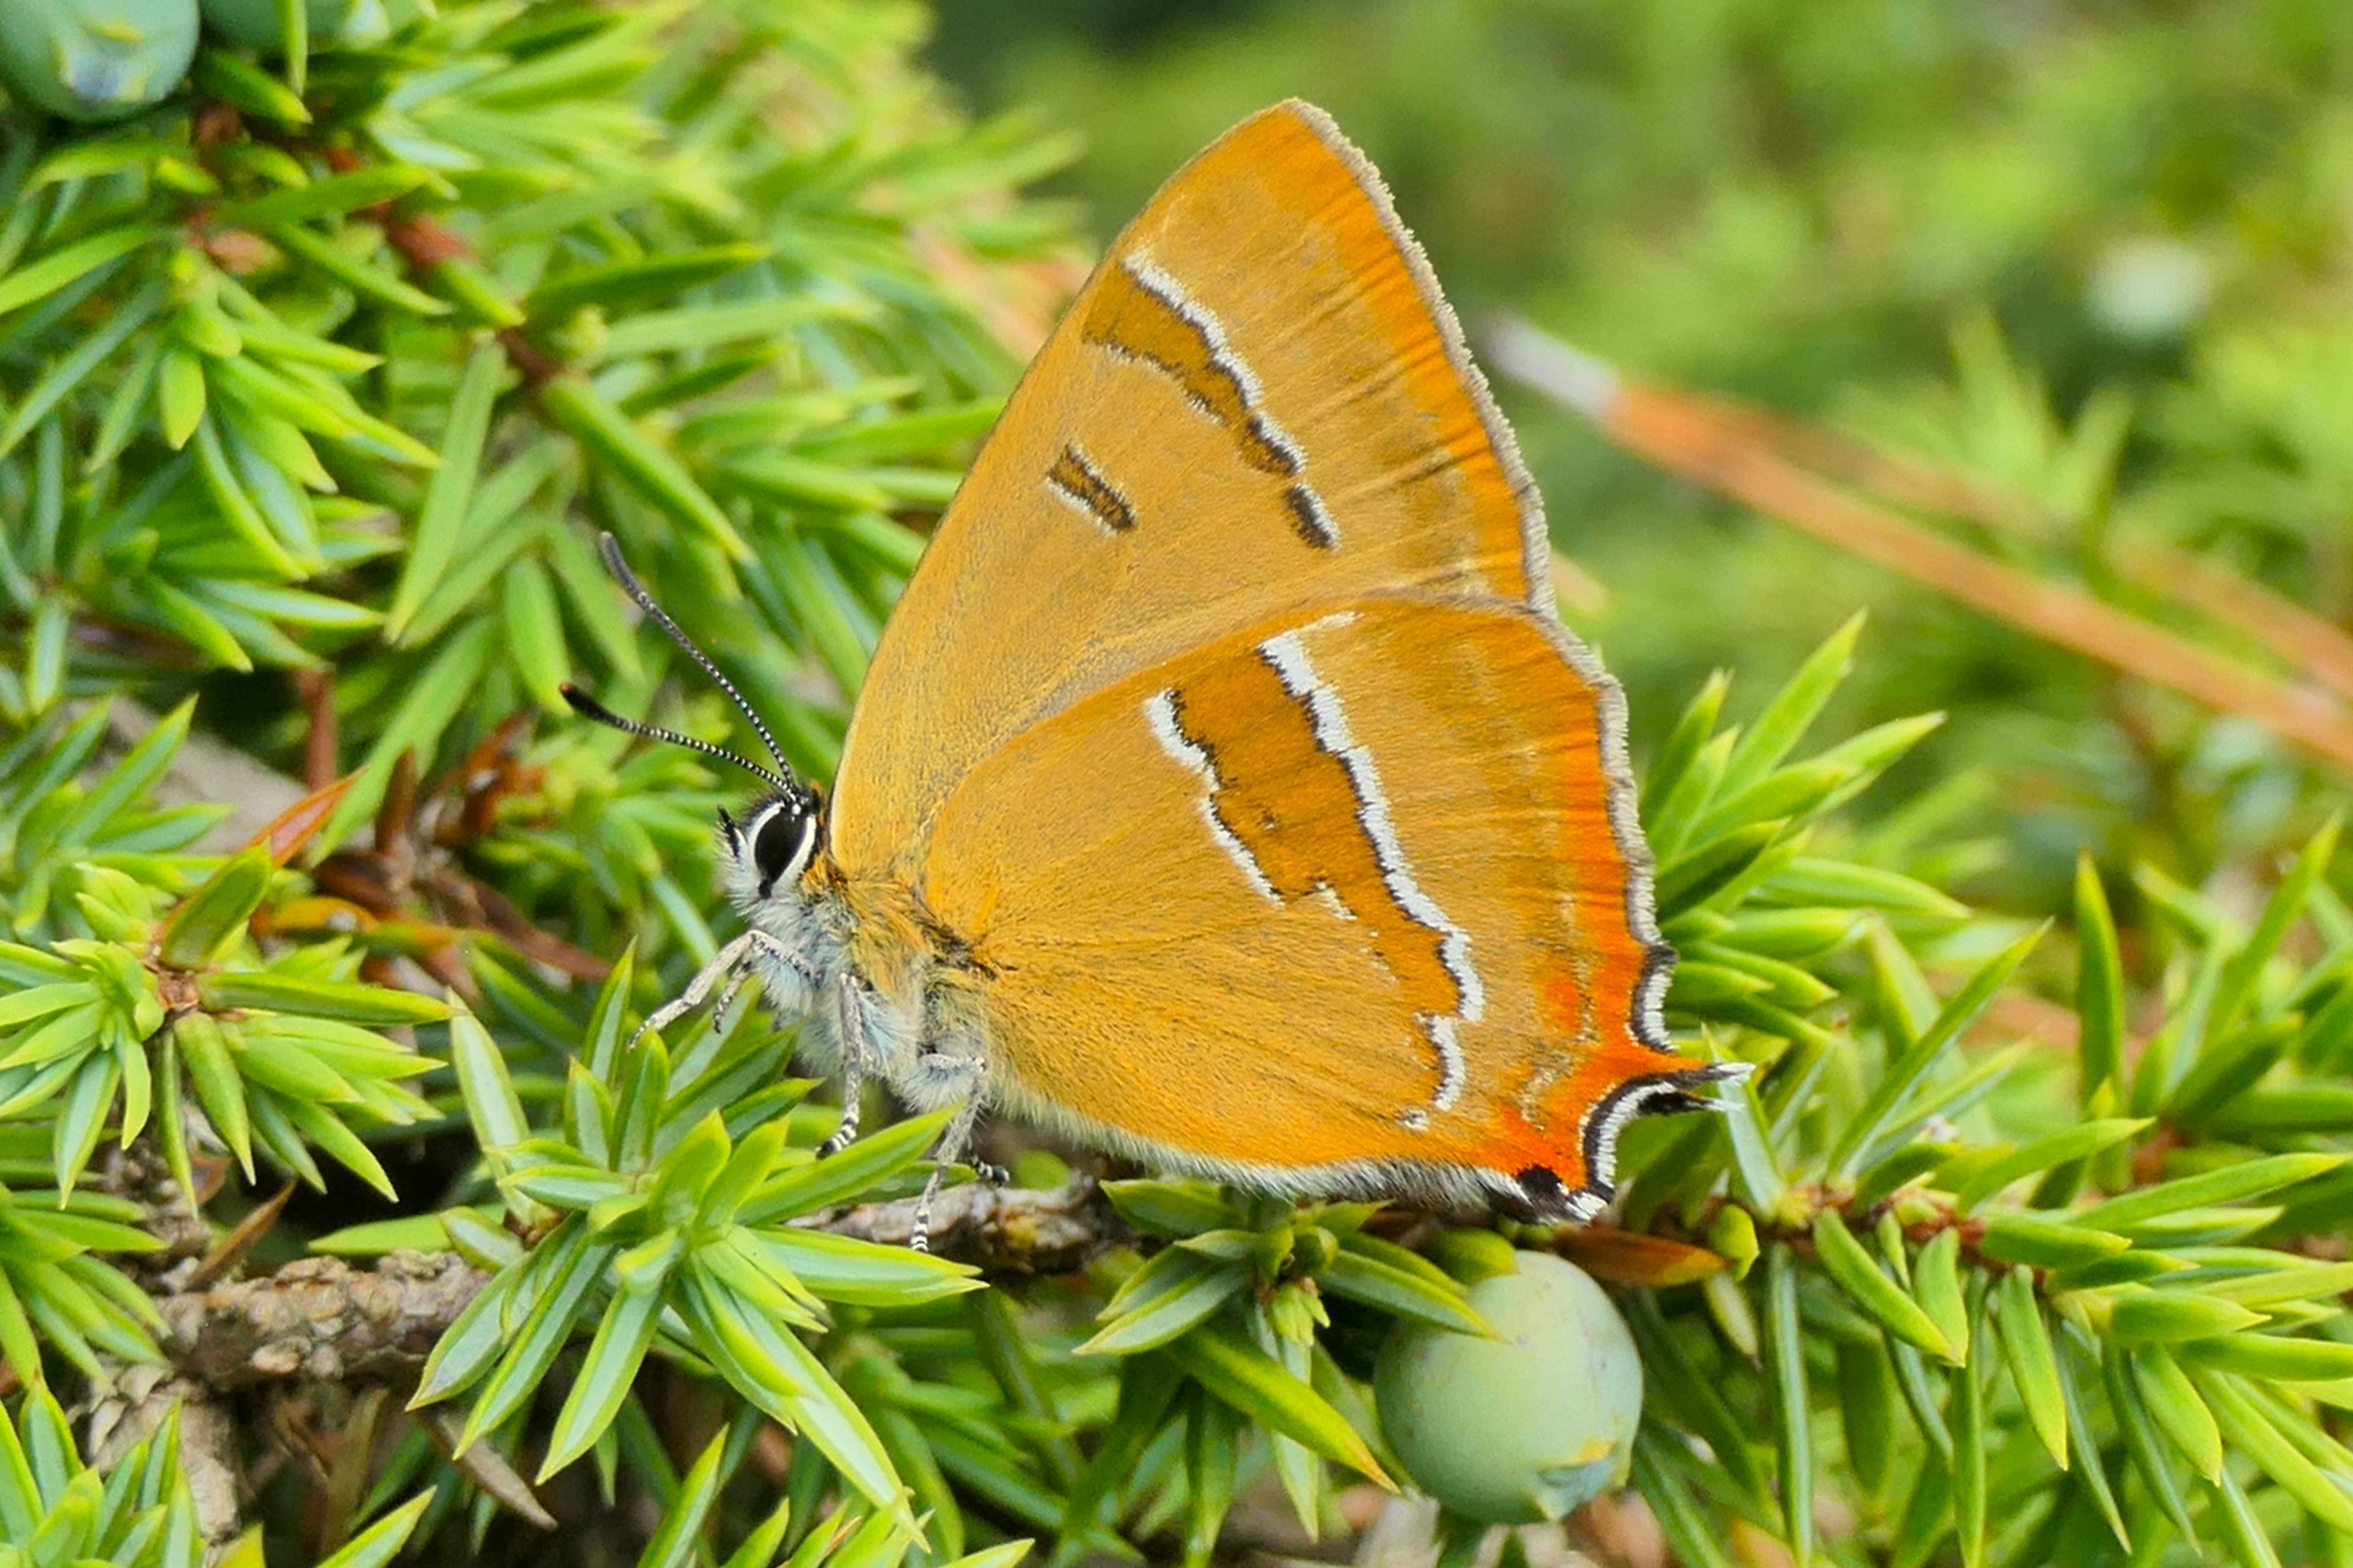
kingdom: Animalia
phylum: Arthropoda
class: Insecta
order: Lepidoptera
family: Lycaenidae
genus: Thecla
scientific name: Thecla betulae
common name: Guldhale
